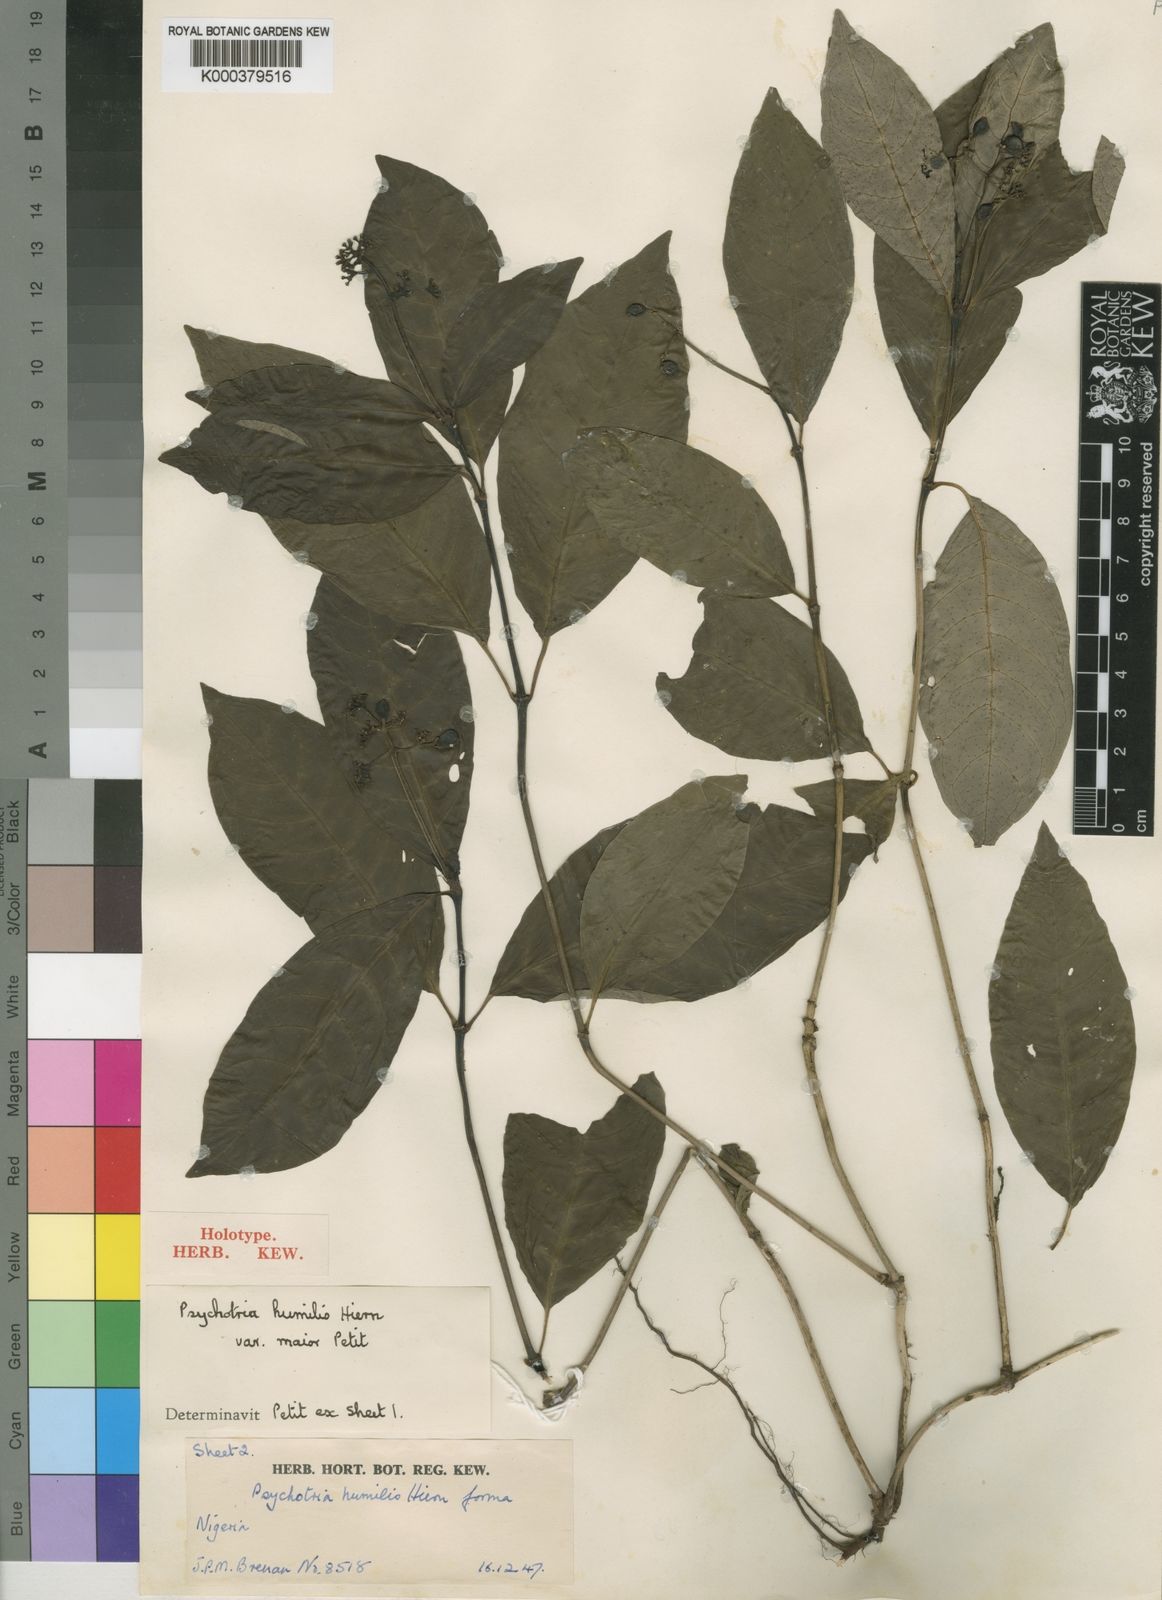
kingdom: Plantae
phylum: Tracheophyta
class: Magnoliopsida
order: Gentianales
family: Rubiaceae
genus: Psychotria
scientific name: Psychotria cornuta
